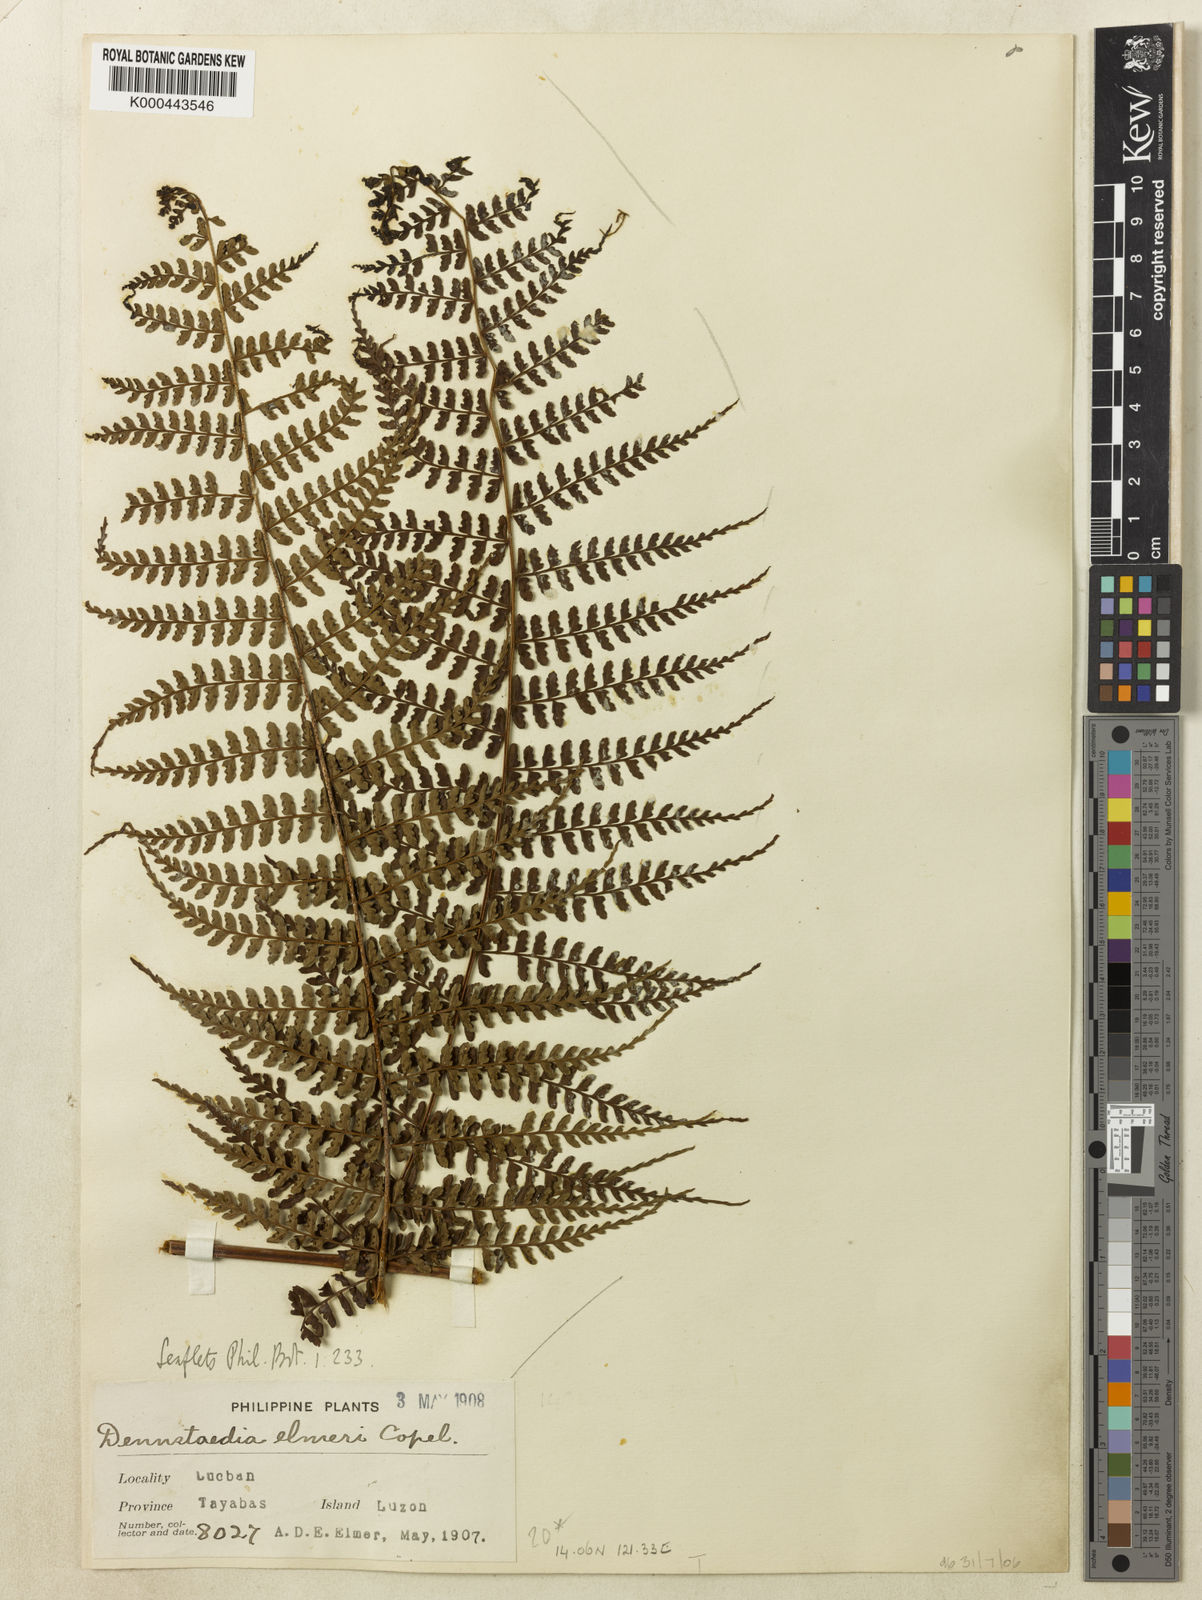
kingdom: Plantae
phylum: Tracheophyta
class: Polypodiopsida
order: Polypodiales
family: Dennstaedtiaceae
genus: Dennstaedtia
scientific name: Dennstaedtia elmeri
